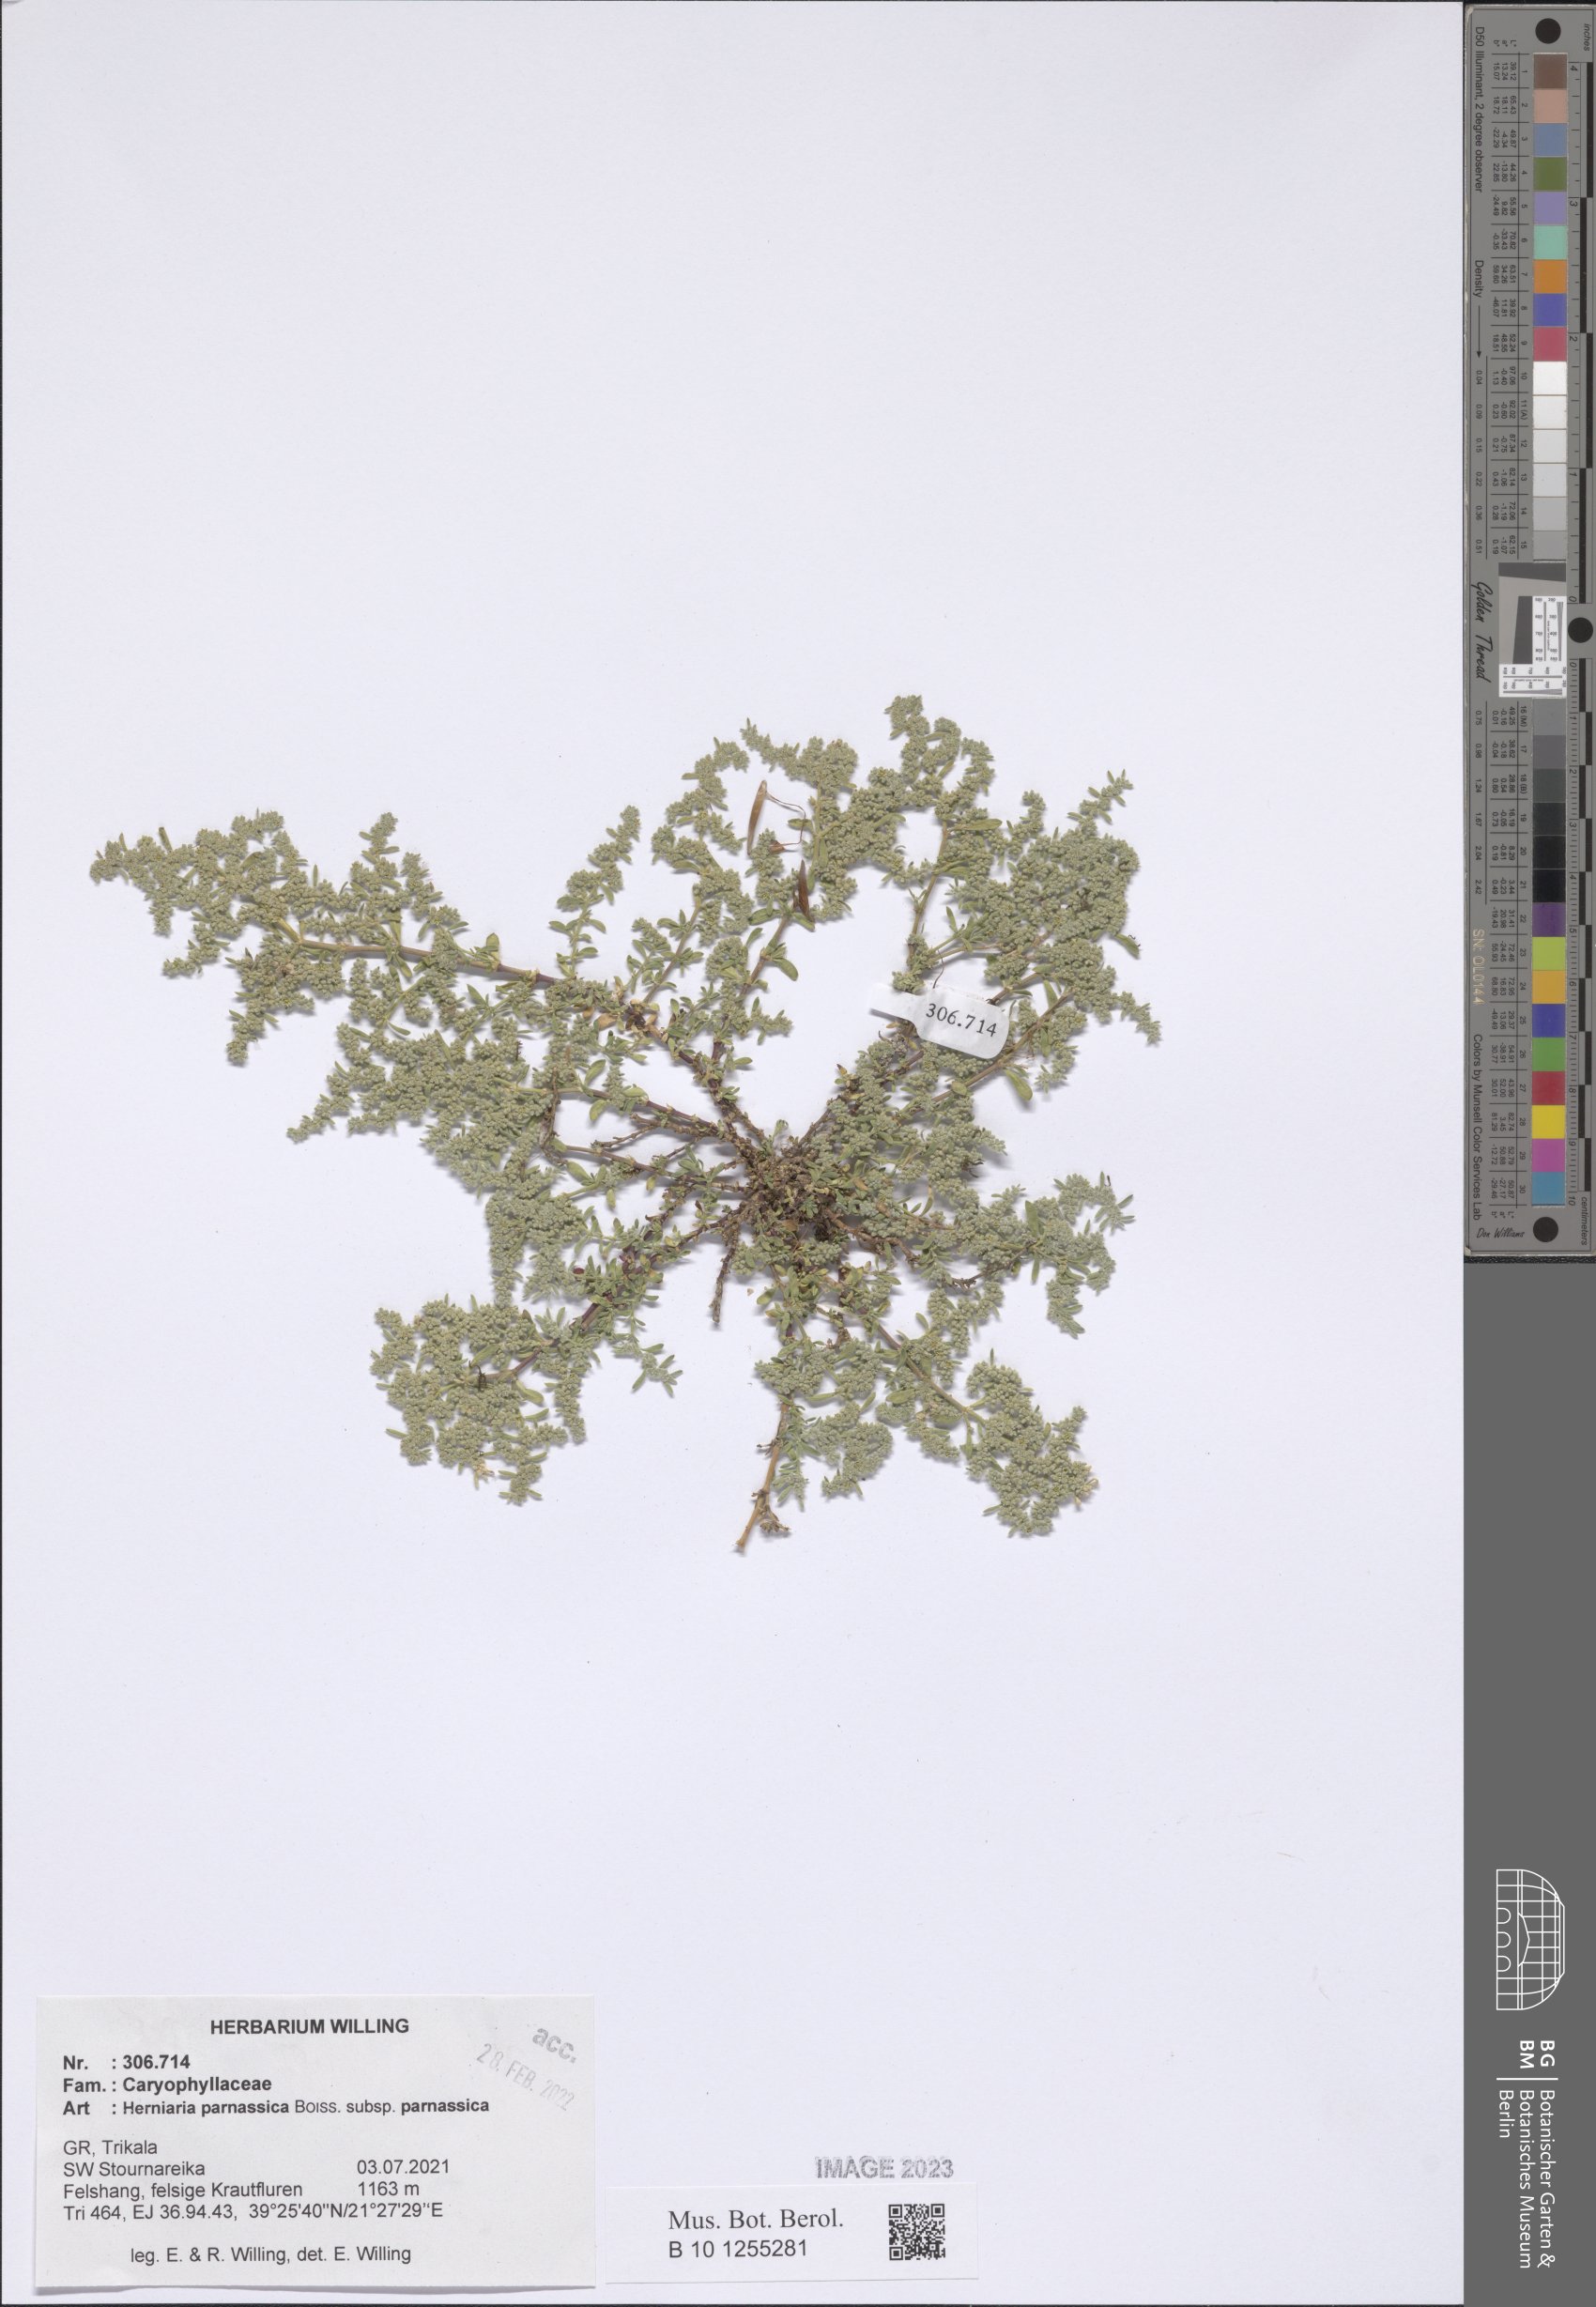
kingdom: Plantae
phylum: Tracheophyta
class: Magnoliopsida
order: Caryophyllales
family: Caryophyllaceae
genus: Herniaria
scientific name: Herniaria parnassica
